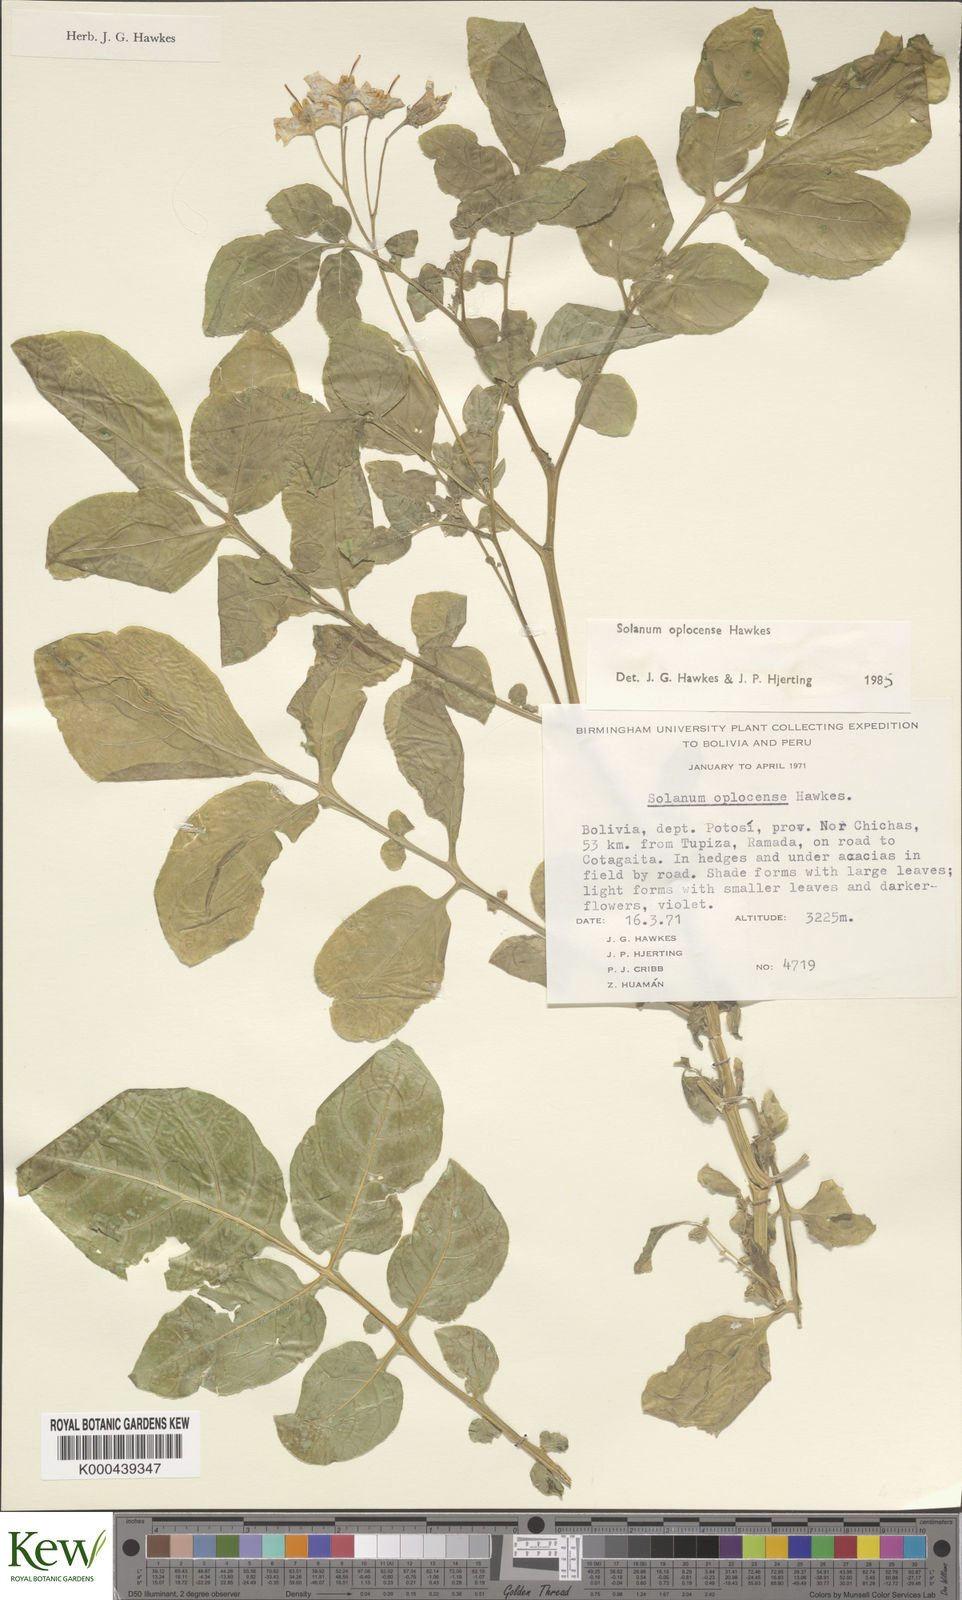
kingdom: Plantae
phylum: Tracheophyta
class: Magnoliopsida
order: Solanales
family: Solanaceae
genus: Solanum
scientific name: Solanum brevicaule
